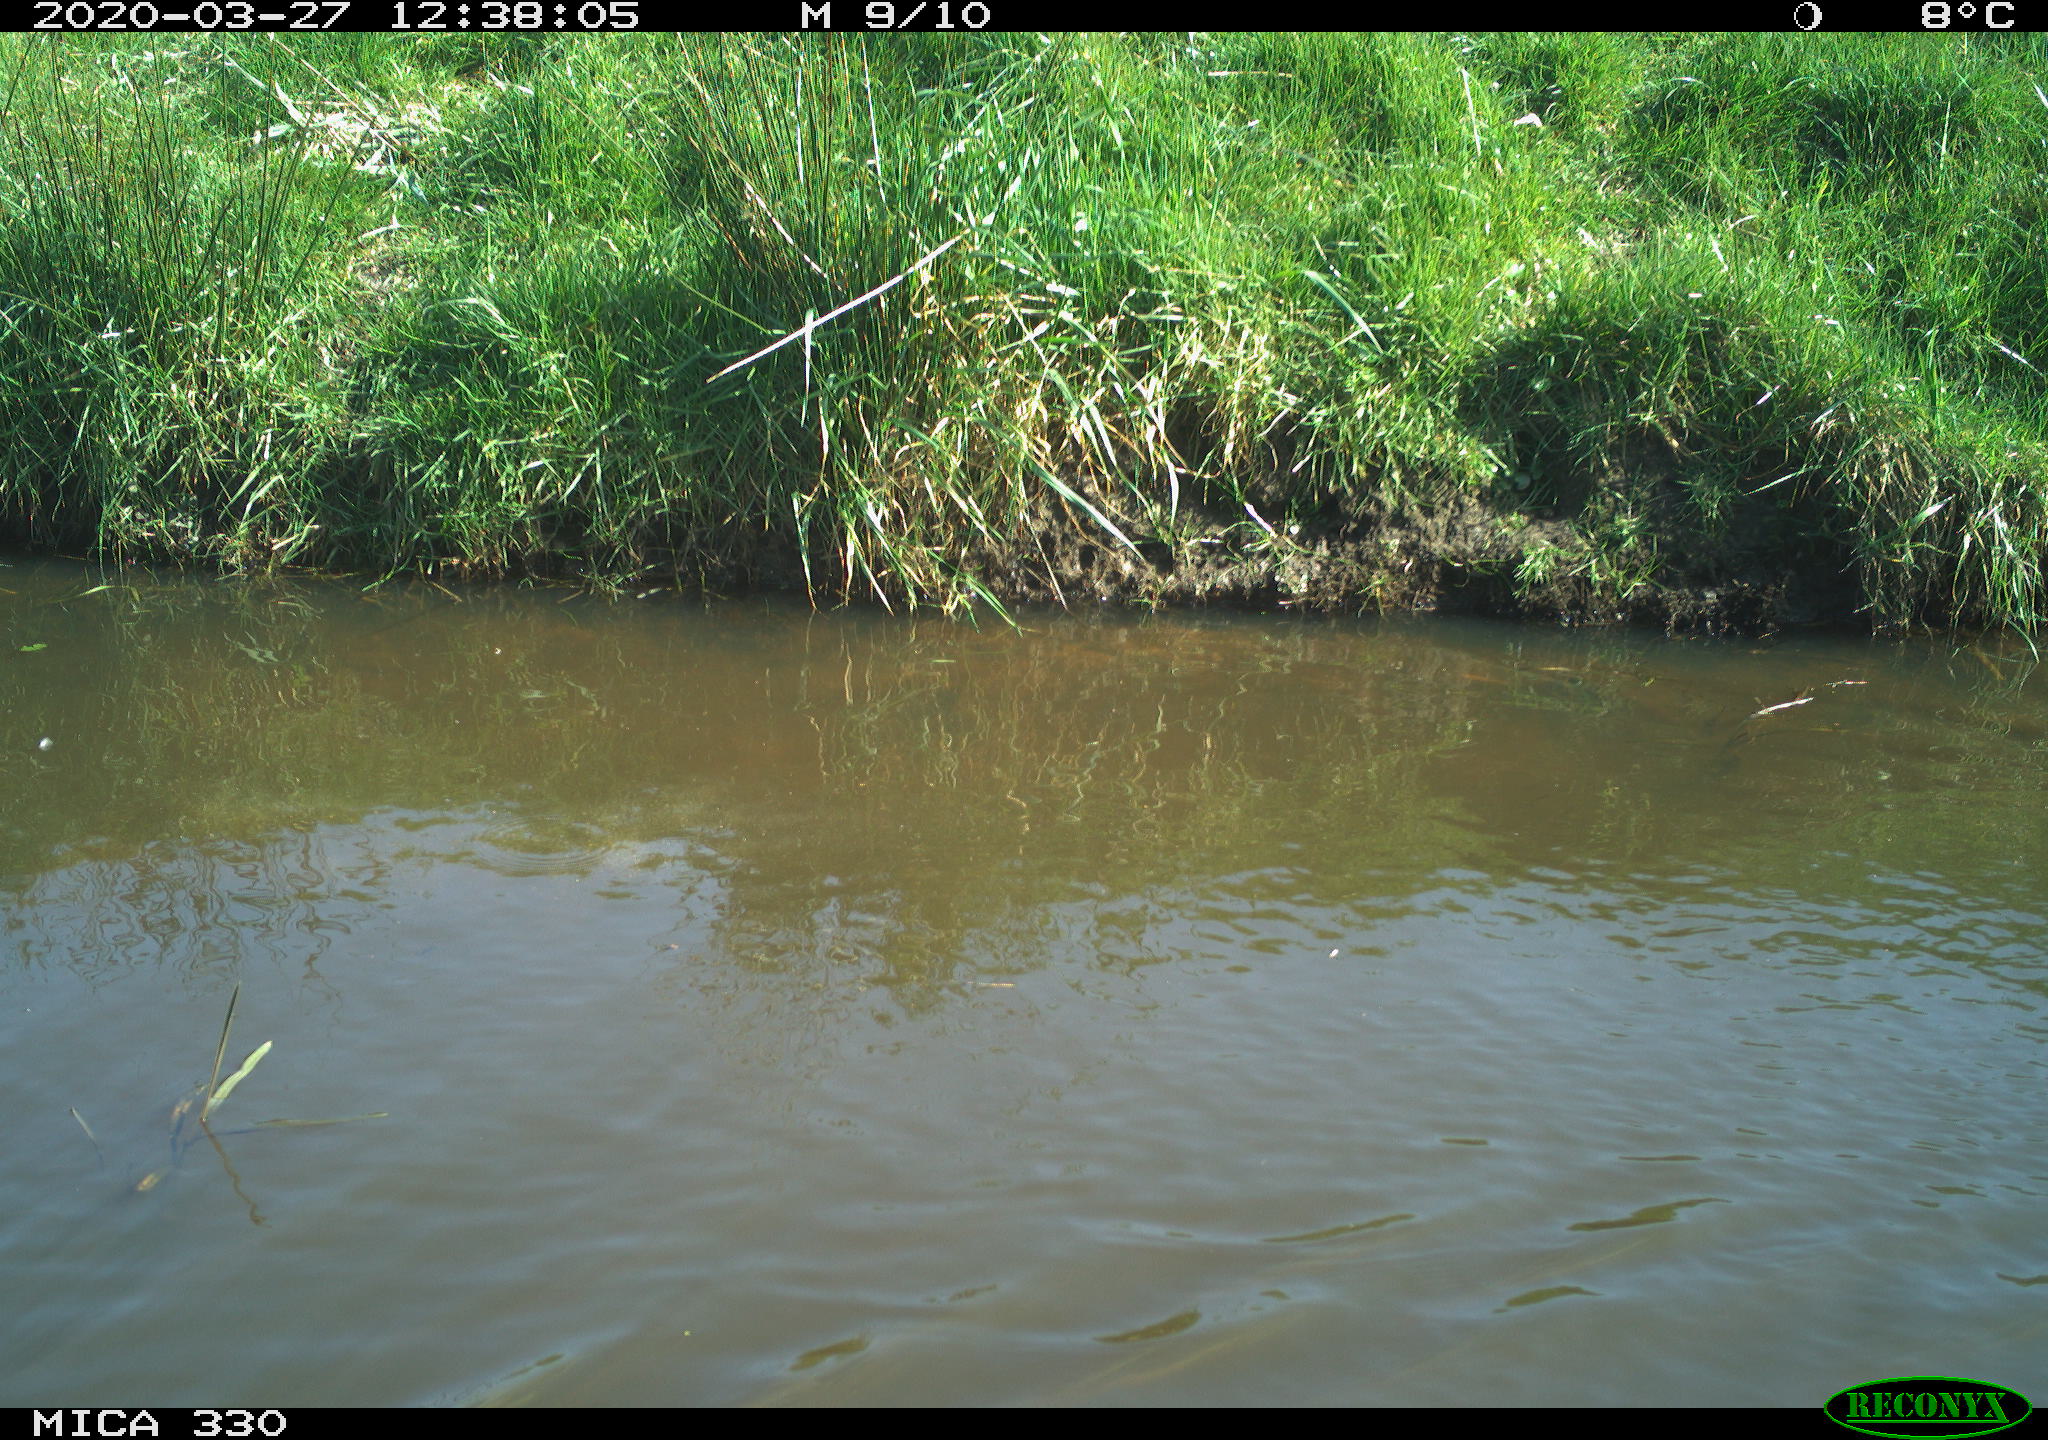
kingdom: Animalia
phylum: Chordata
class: Aves
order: Anseriformes
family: Anatidae
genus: Anas
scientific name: Anas platyrhynchos
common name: Mallard
